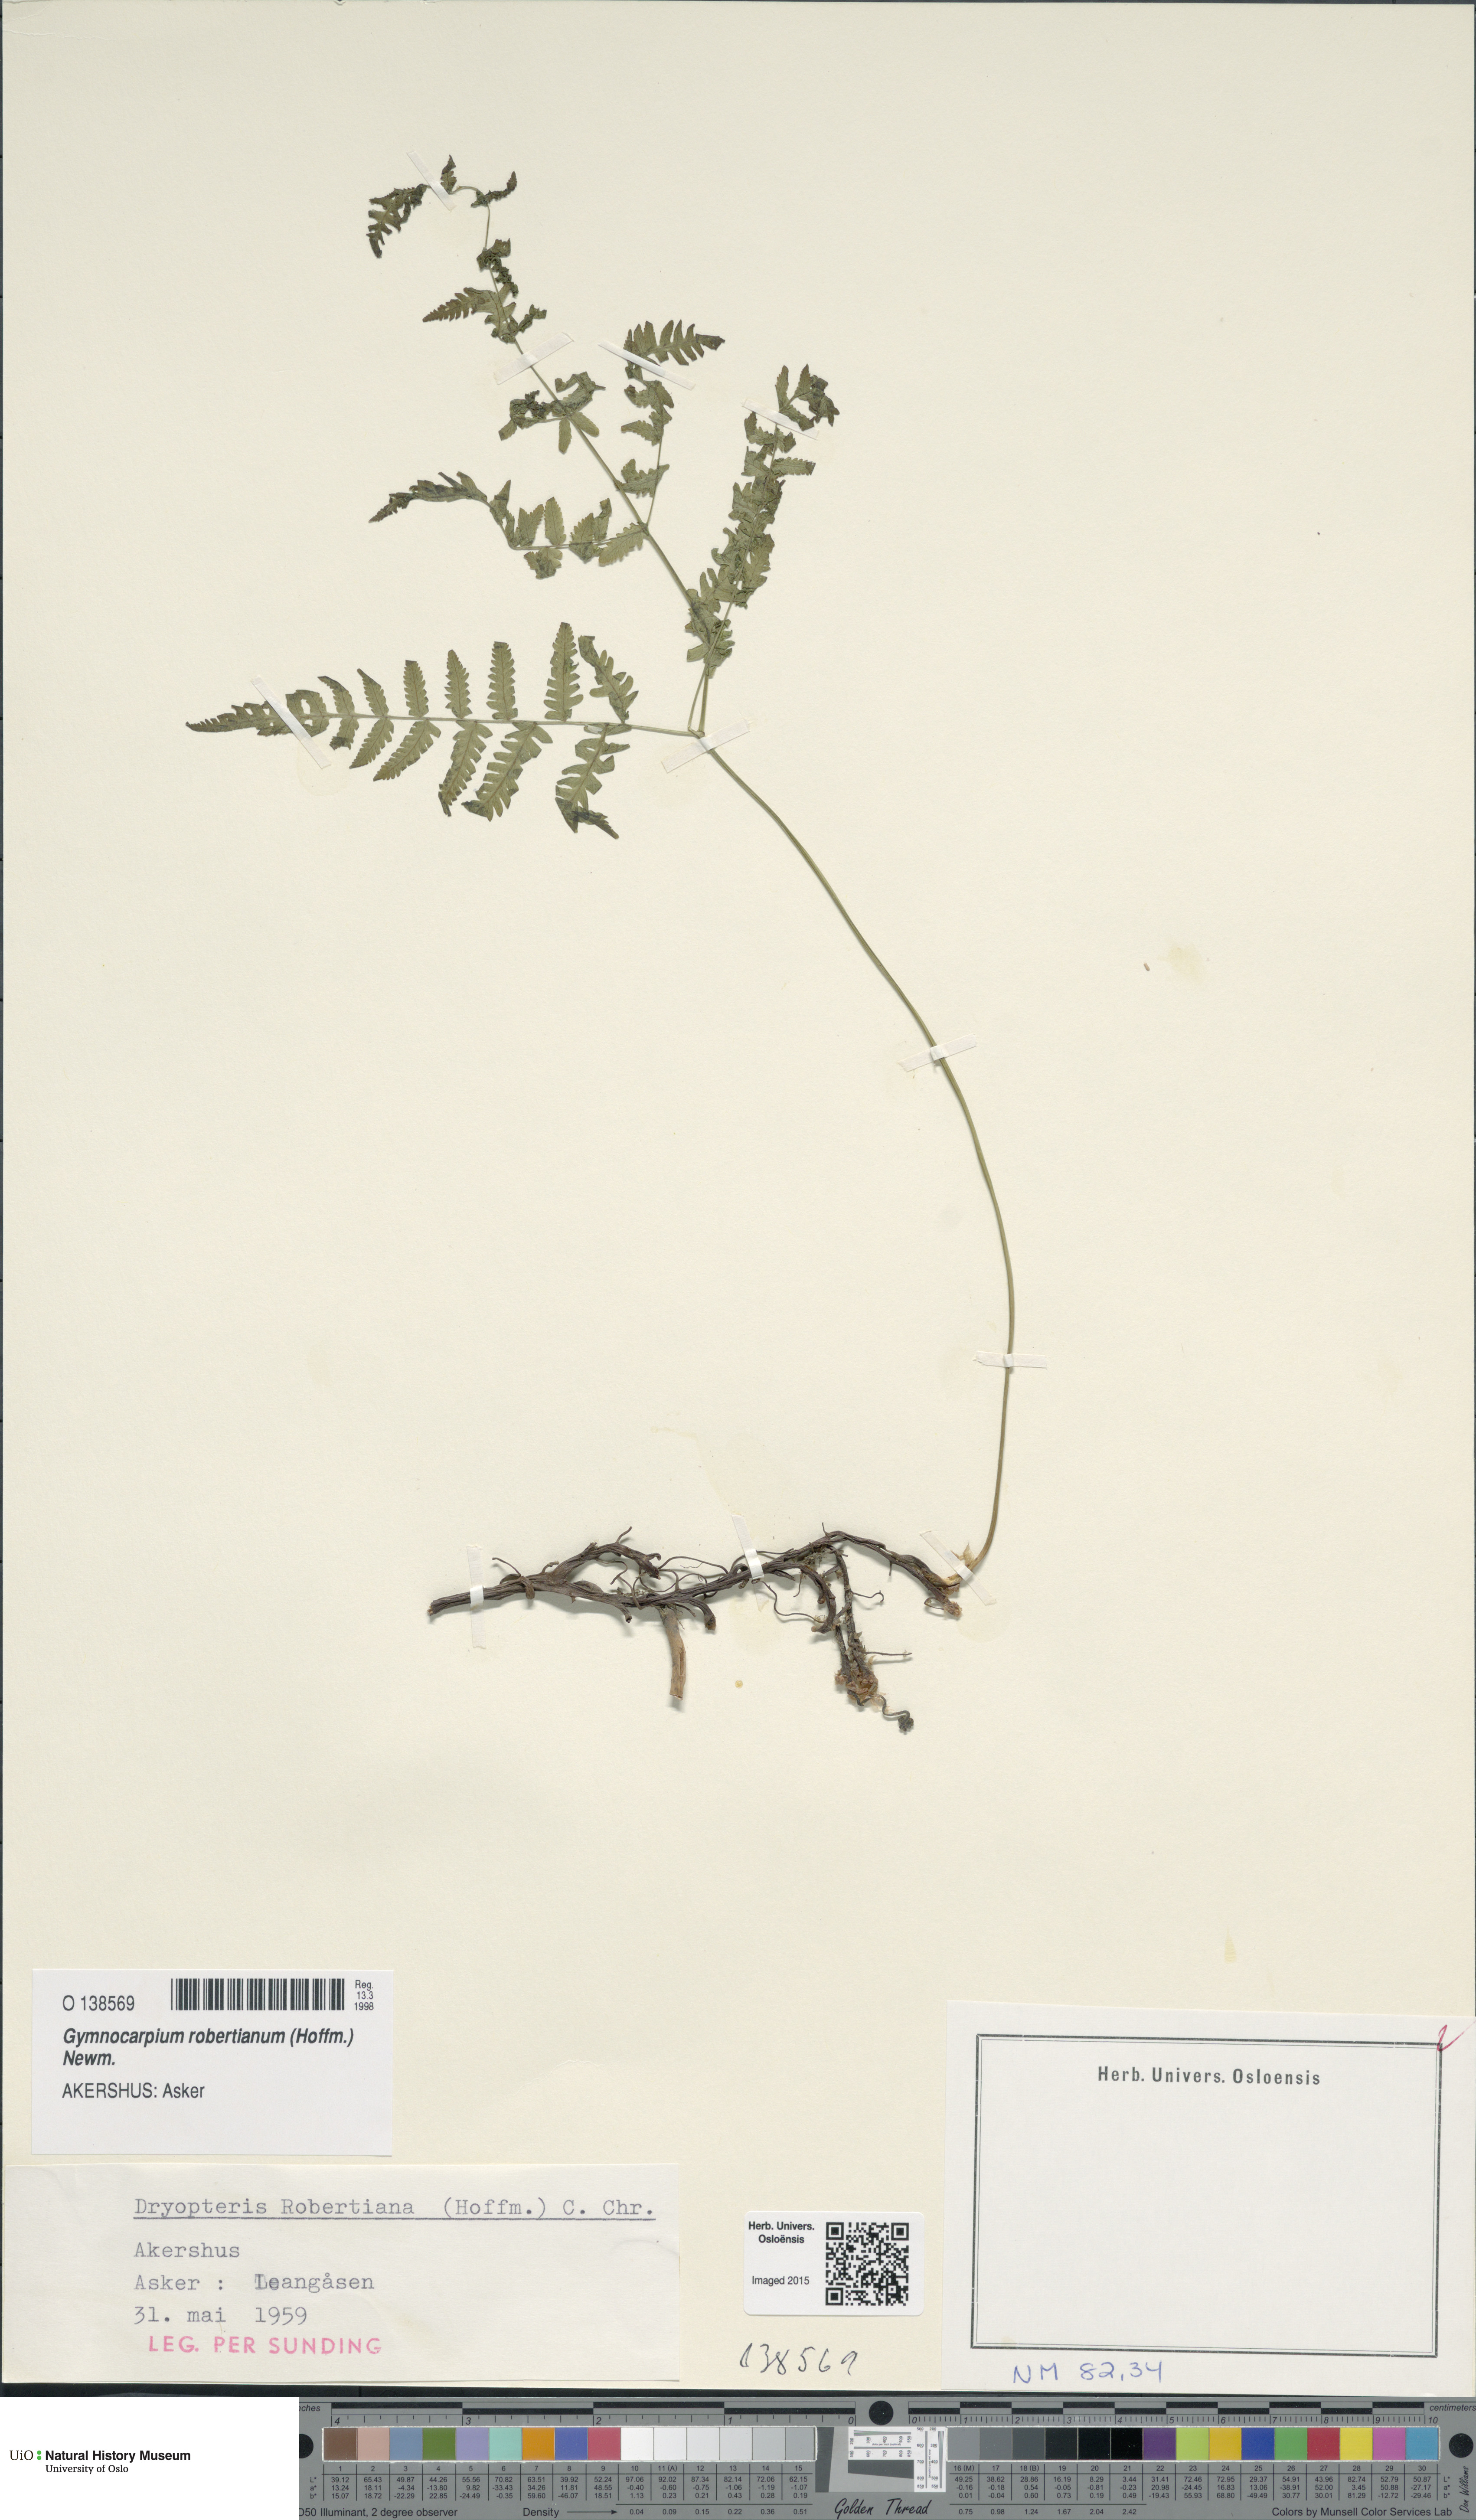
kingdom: Plantae
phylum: Tracheophyta
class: Polypodiopsida
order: Polypodiales
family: Cystopteridaceae
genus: Gymnocarpium
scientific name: Gymnocarpium robertianum
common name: Limestone fern
